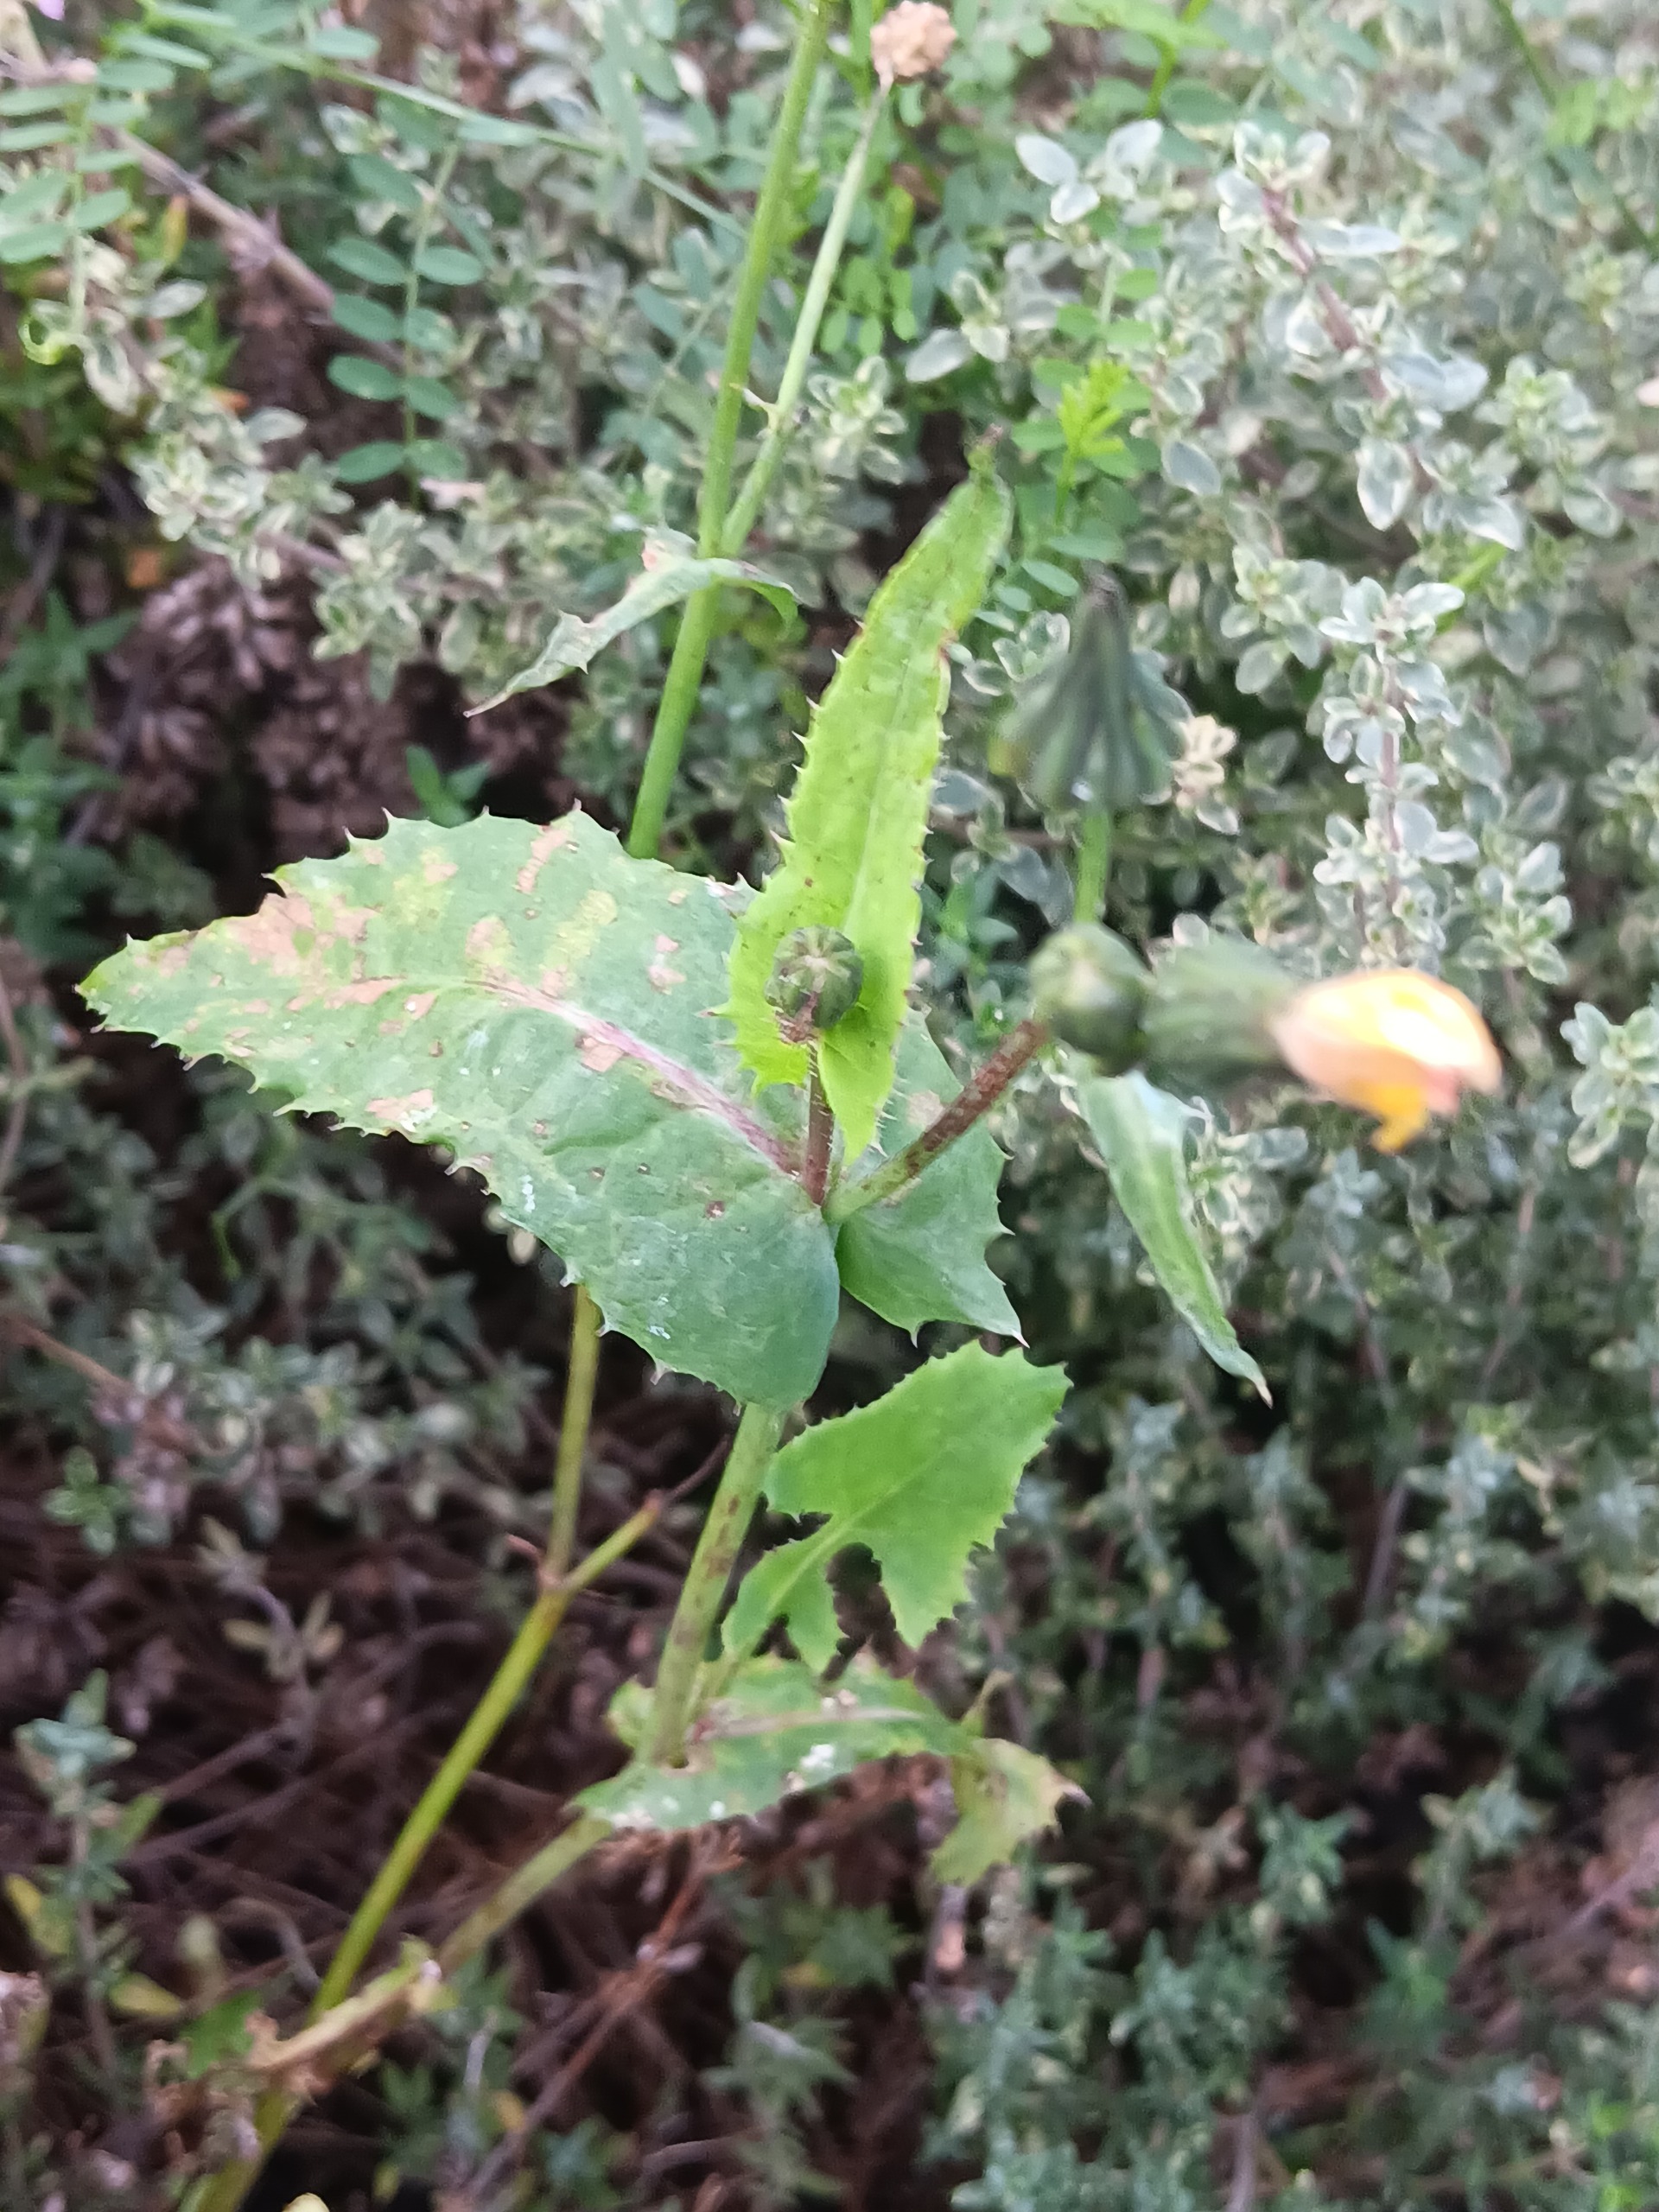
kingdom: Plantae
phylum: Tracheophyta
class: Magnoliopsida
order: Asterales
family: Asteraceae
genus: Sonchus
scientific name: Sonchus oleraceus
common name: Almindelig svinemælk
